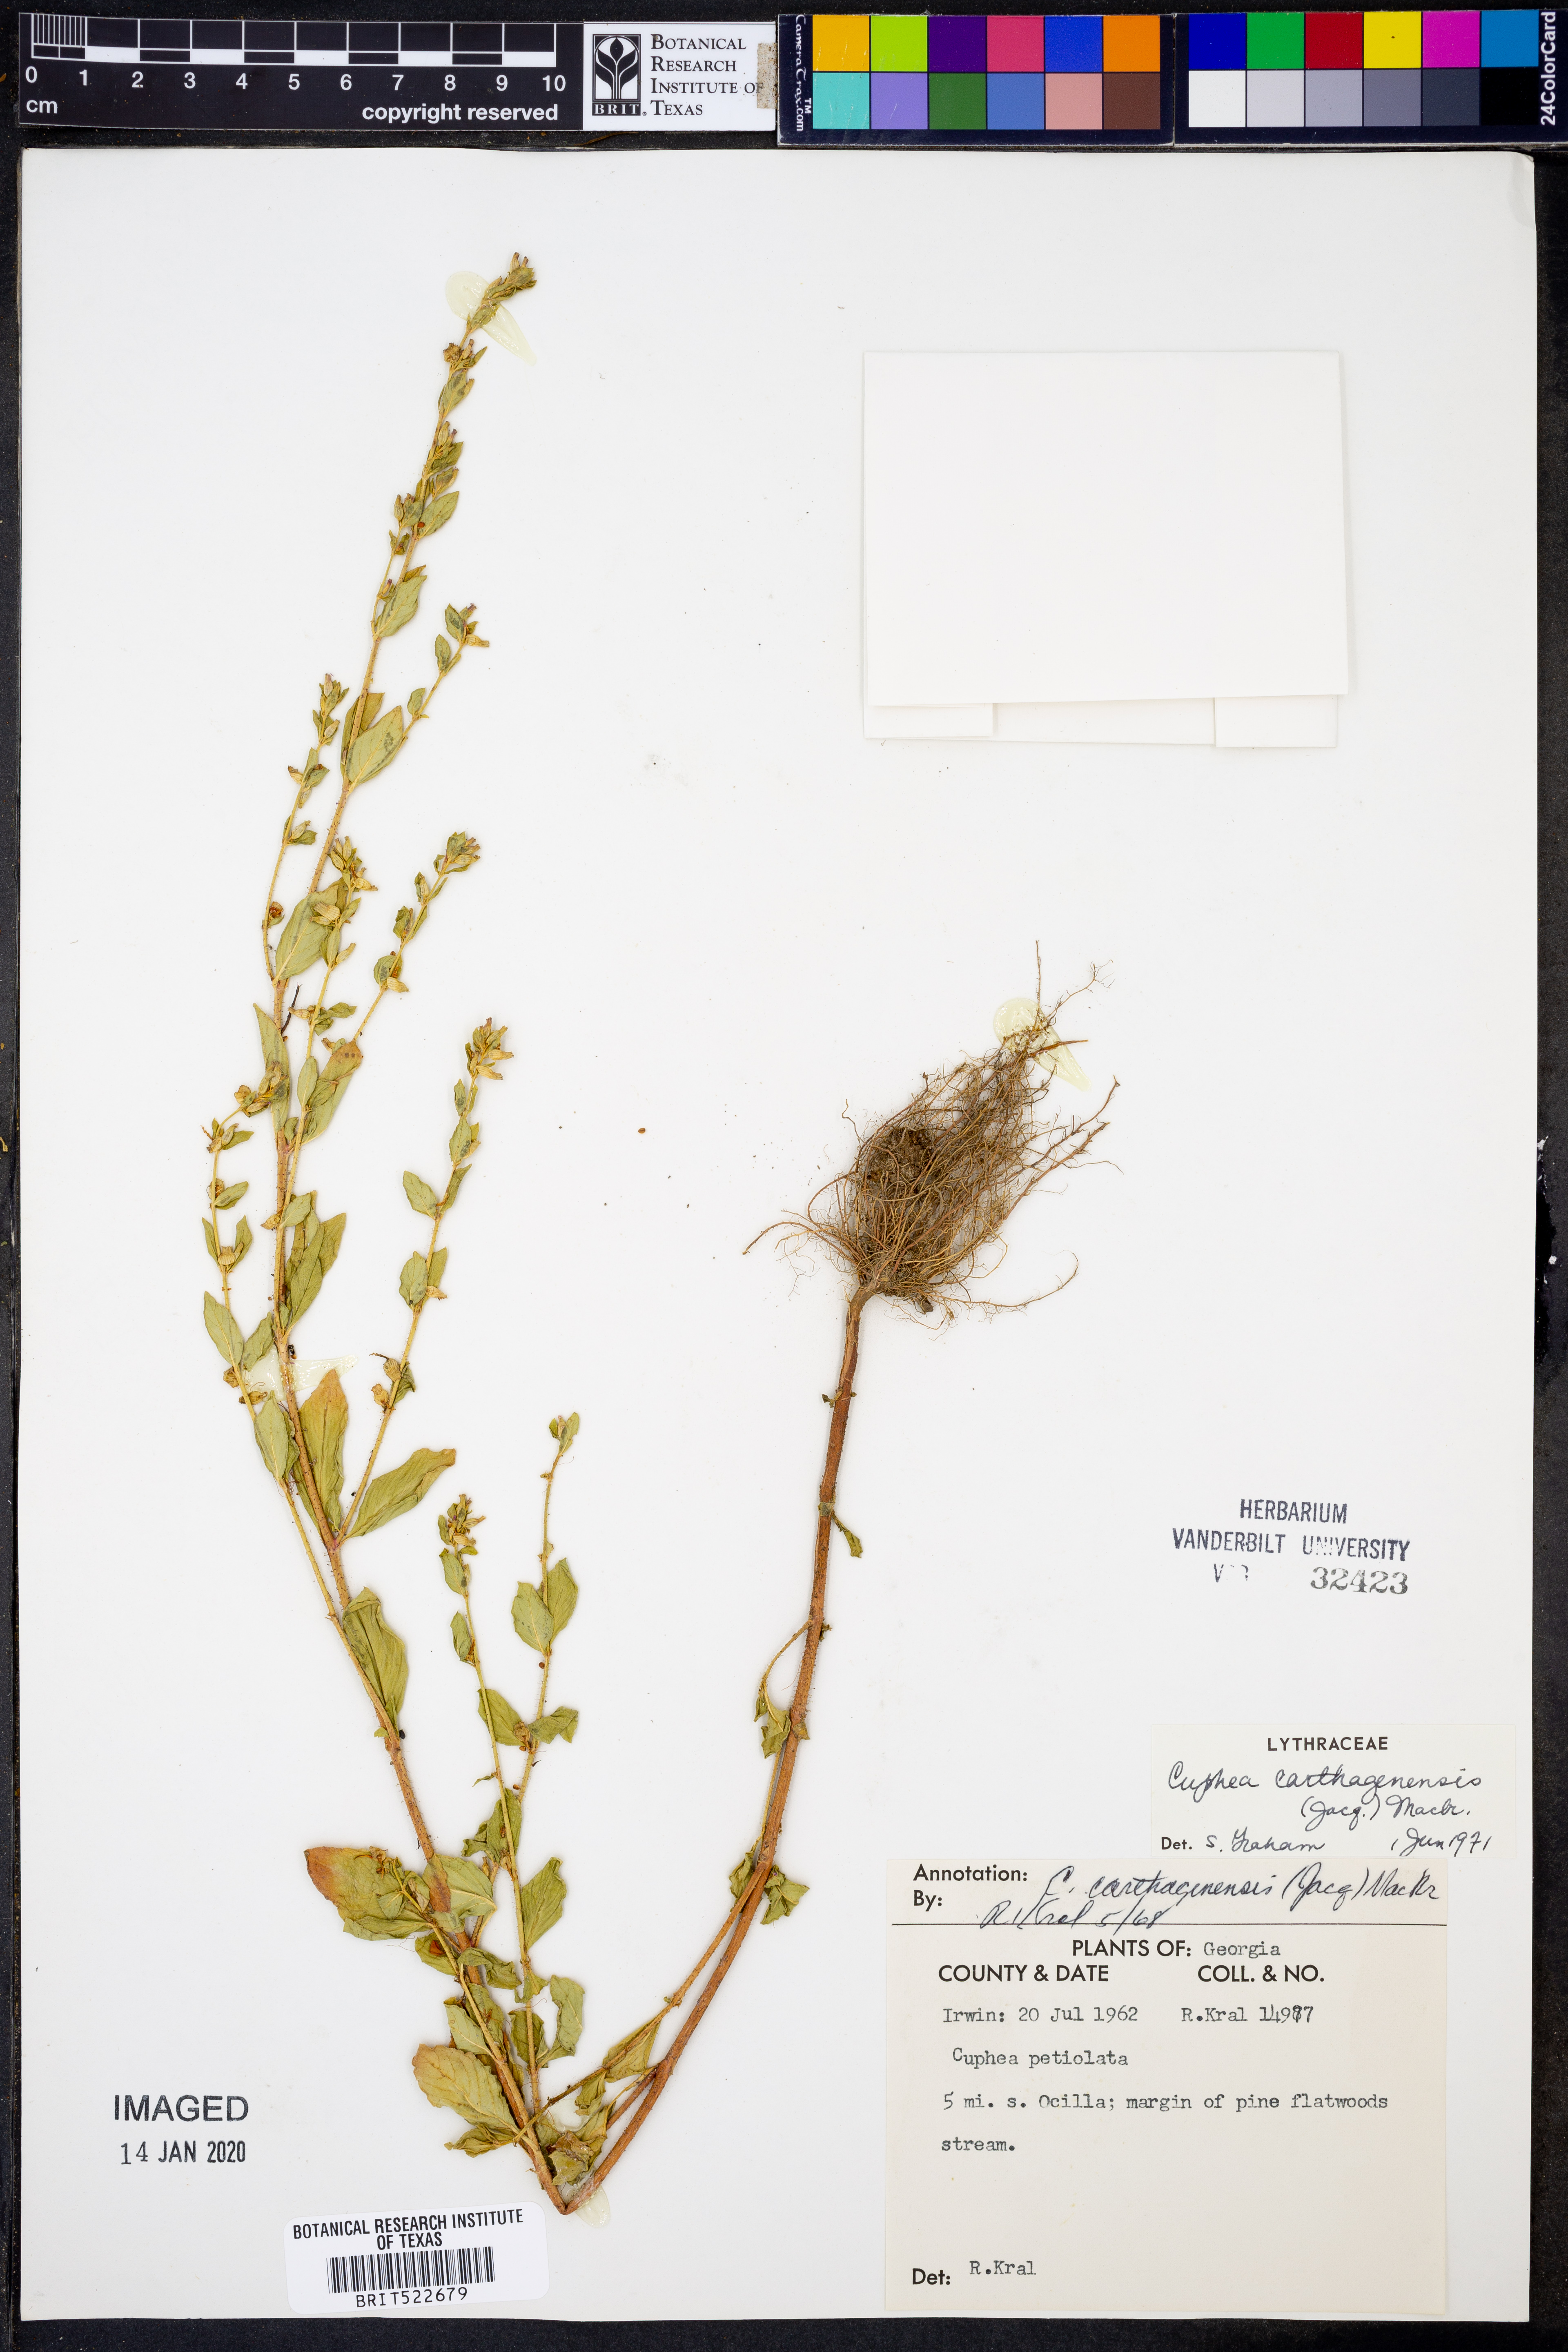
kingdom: Plantae
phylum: Tracheophyta
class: Magnoliopsida
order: Myrtales
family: Lythraceae
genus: Cuphea
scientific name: Cuphea carthagenensis
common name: Colombian waxweed
